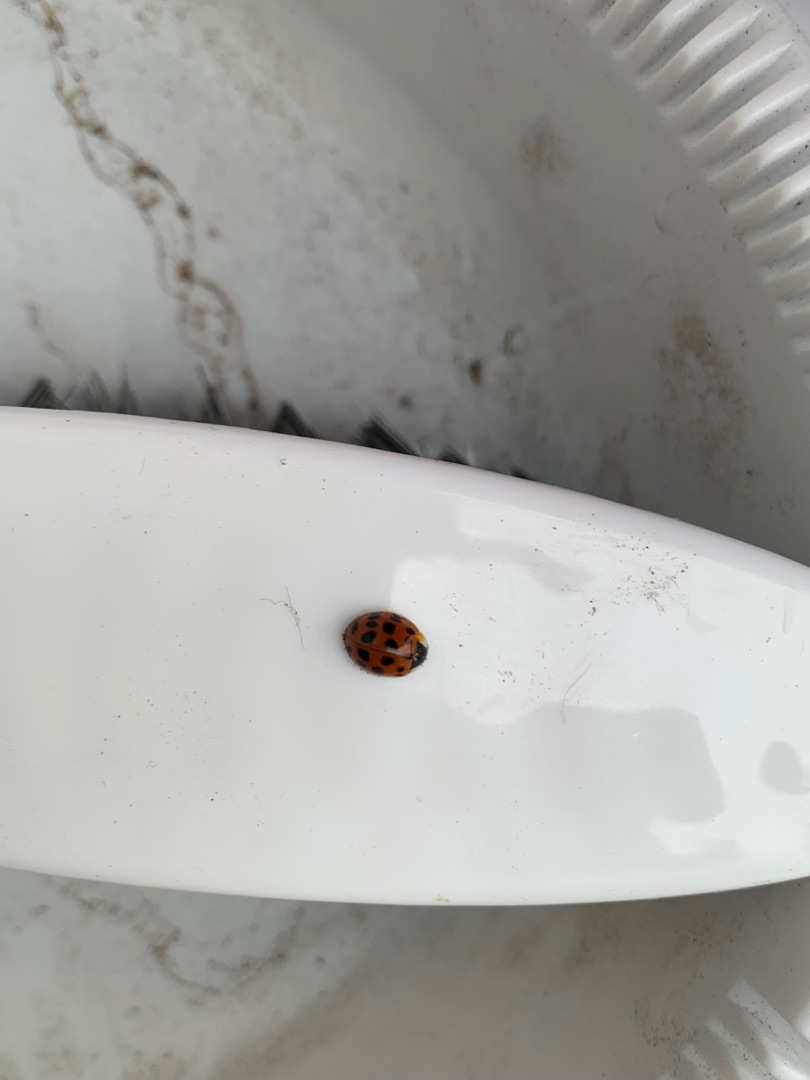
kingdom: Animalia
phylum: Arthropoda
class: Insecta
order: Coleoptera
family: Coccinellidae
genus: Harmonia
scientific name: Harmonia axyridis
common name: Harlekinmariehøne
